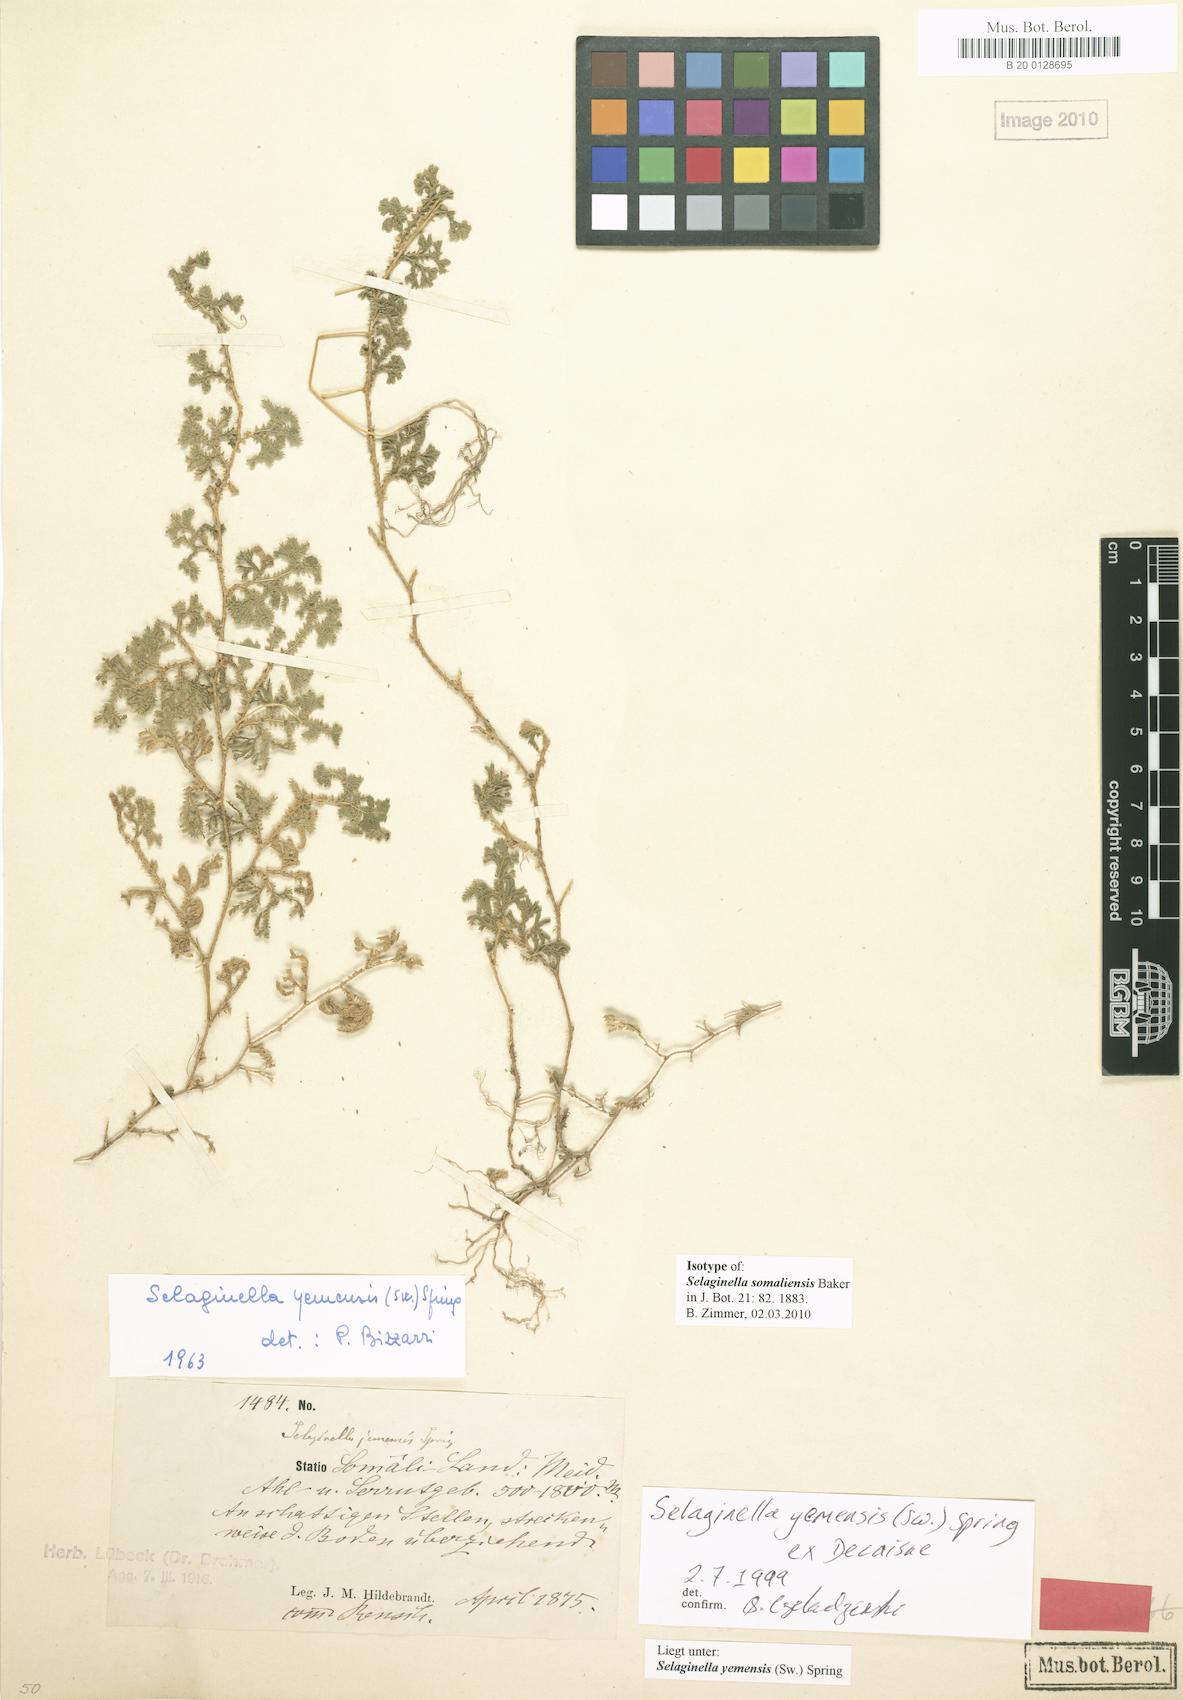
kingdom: Plantae
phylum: Tracheophyta
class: Lycopodiopsida
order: Selaginellales
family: Selaginellaceae
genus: Selaginella
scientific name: Selaginella yemensis
